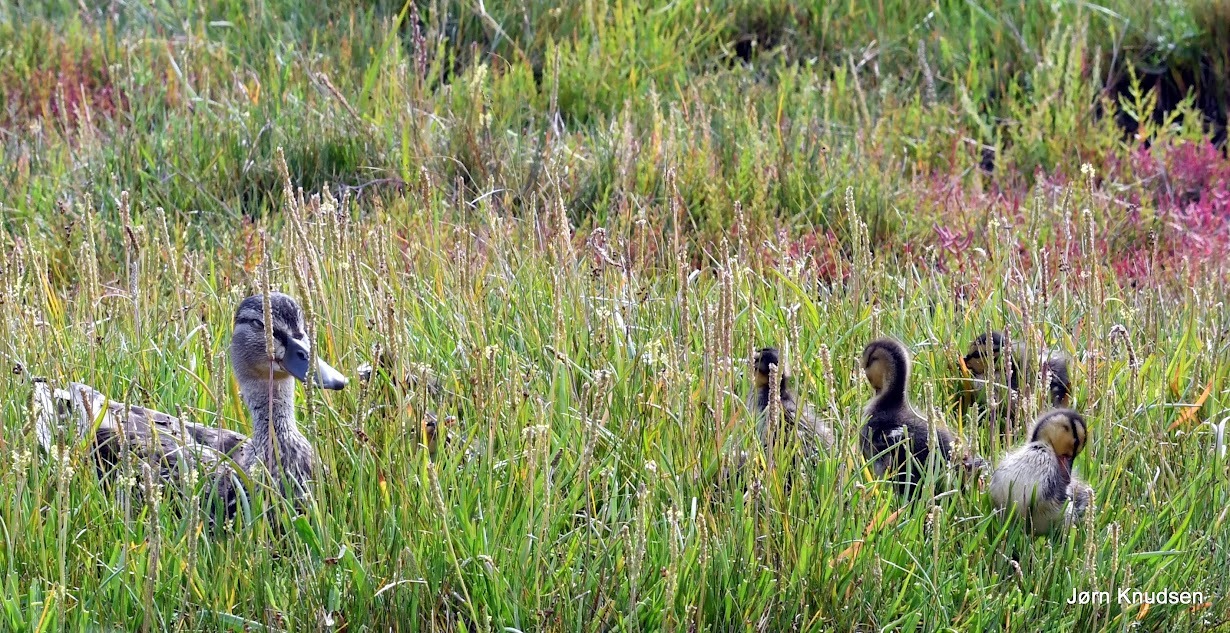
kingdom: Animalia
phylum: Chordata
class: Aves
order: Anseriformes
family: Anatidae
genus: Anas
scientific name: Anas platyrhynchos
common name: Gråand
